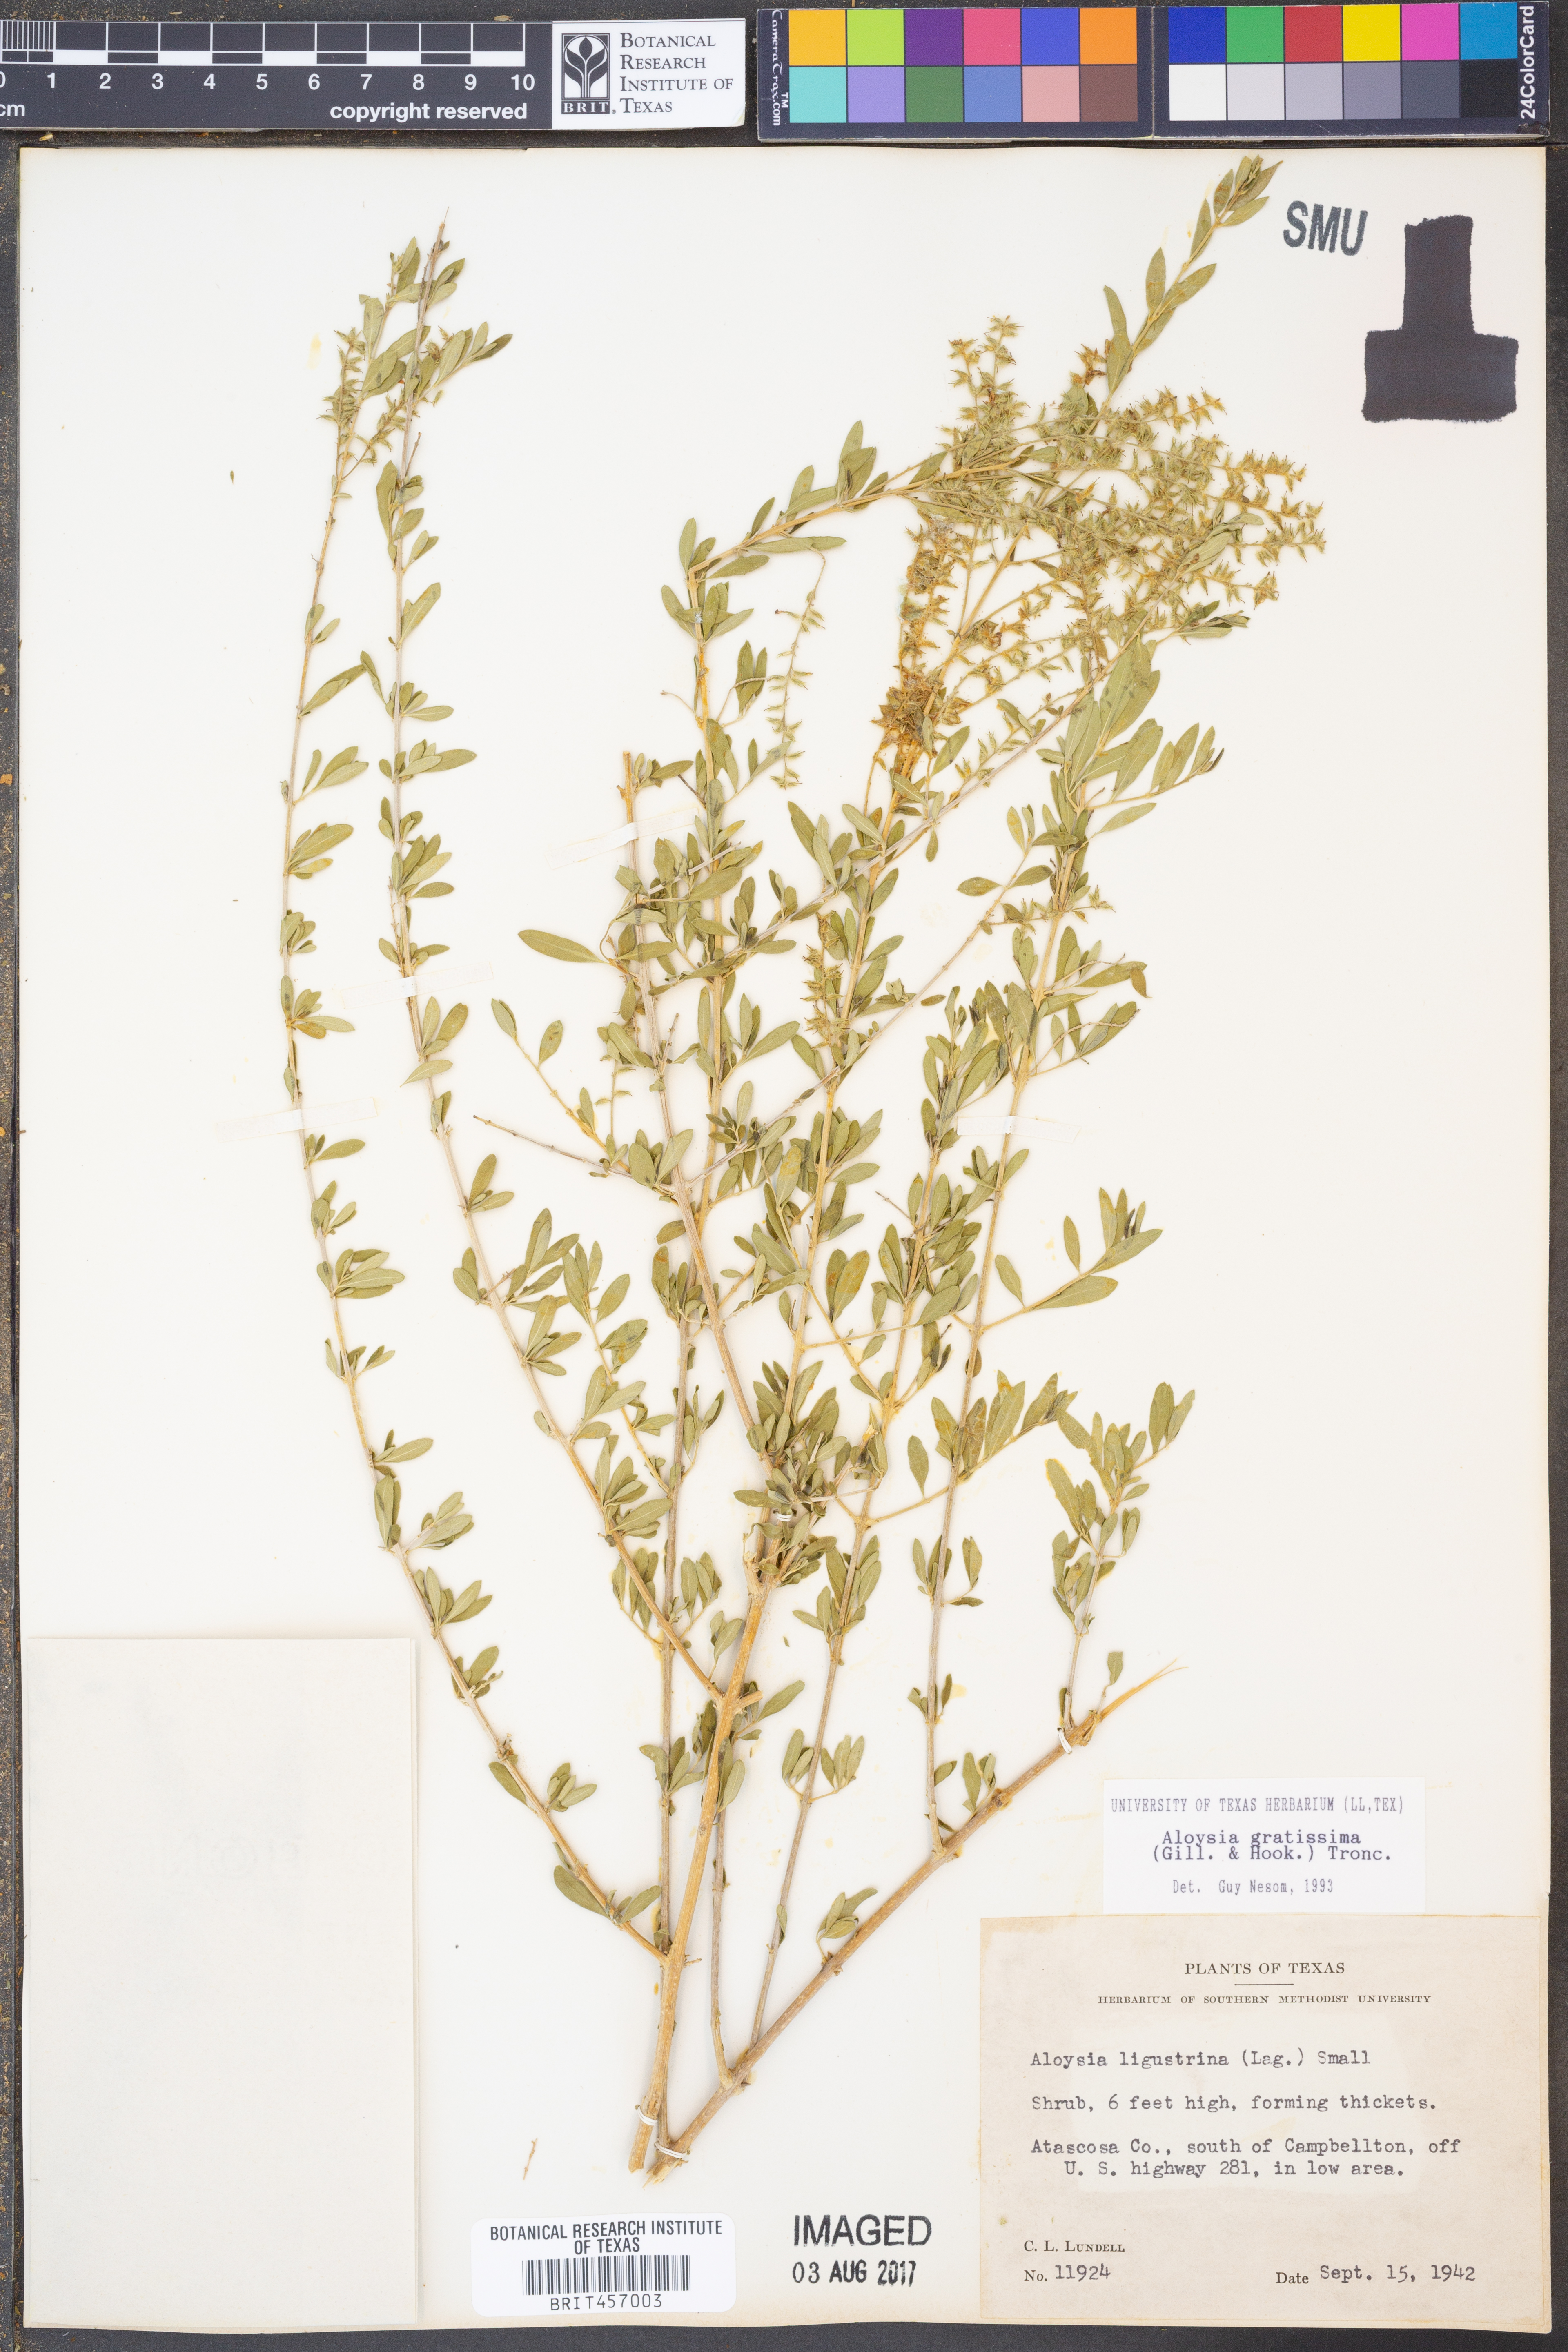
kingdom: Plantae
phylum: Tracheophyta
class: Magnoliopsida
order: Lamiales
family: Verbenaceae
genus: Aloysia
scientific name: Aloysia gratissima
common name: Common bee-brush
